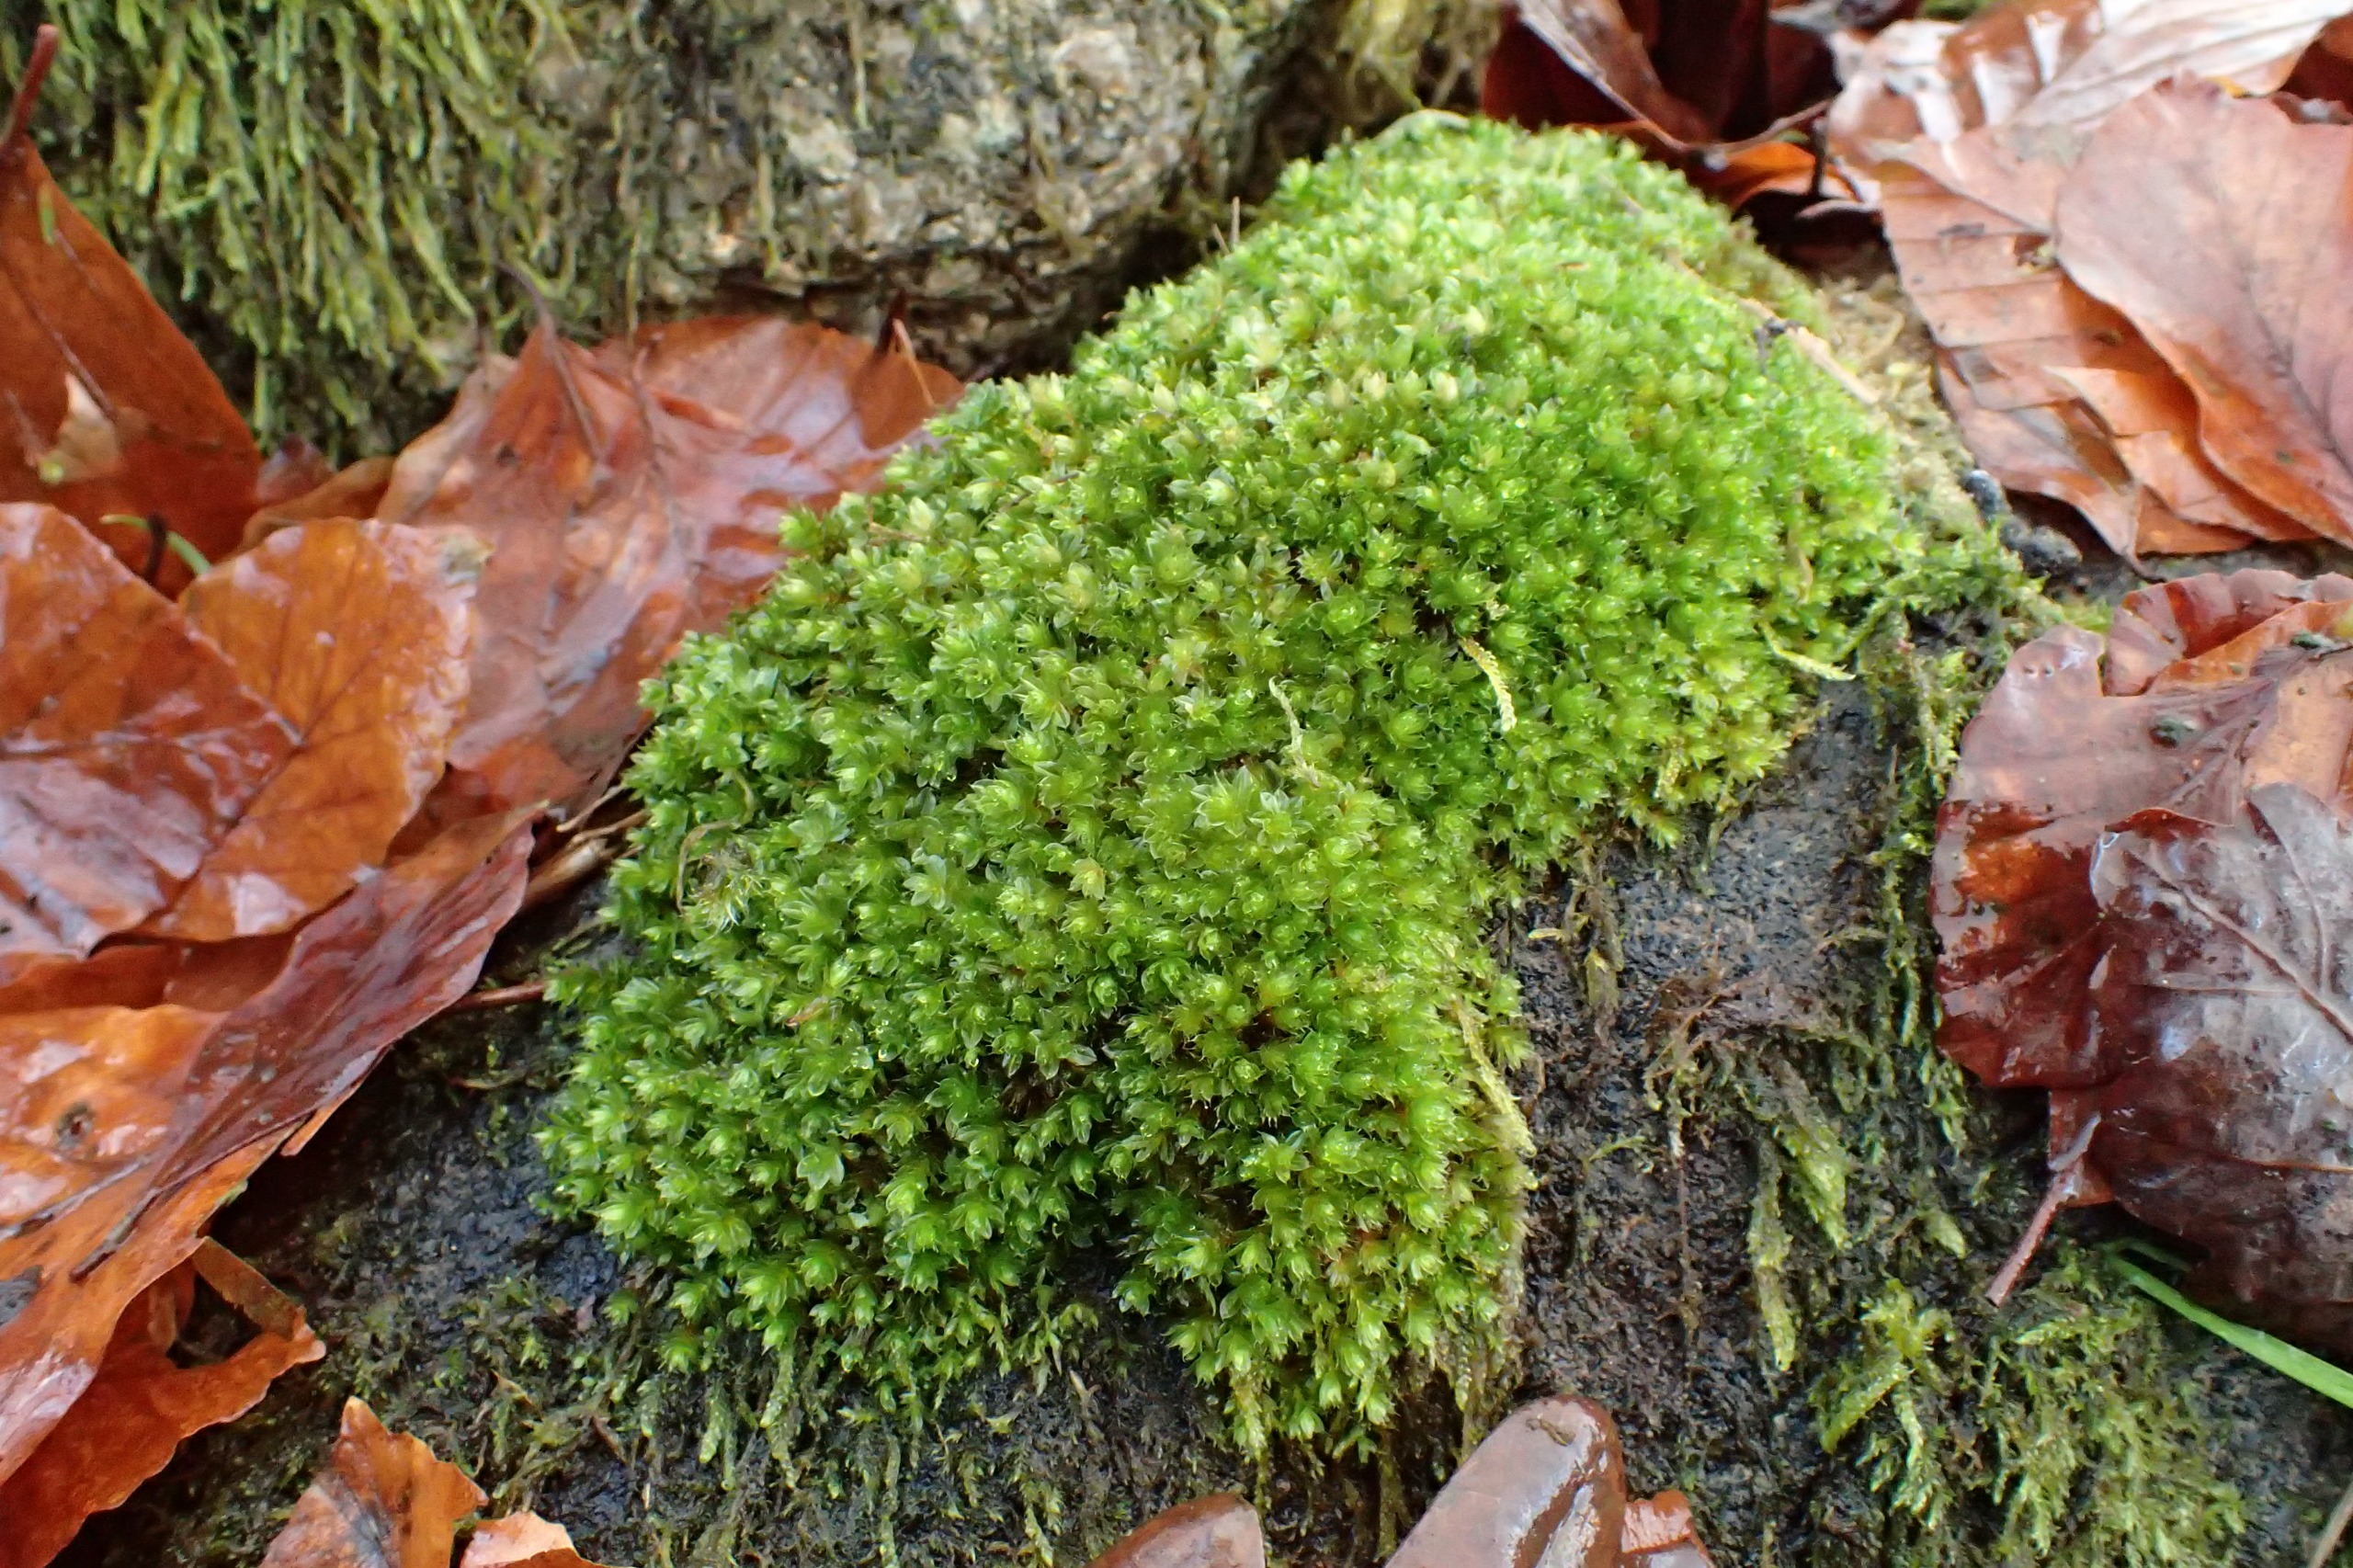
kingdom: Plantae
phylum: Bryophyta
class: Bryopsida
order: Bryales
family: Bryaceae
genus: Rosulabryum
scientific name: Rosulabryum capillare
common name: Hårspidset bryum
